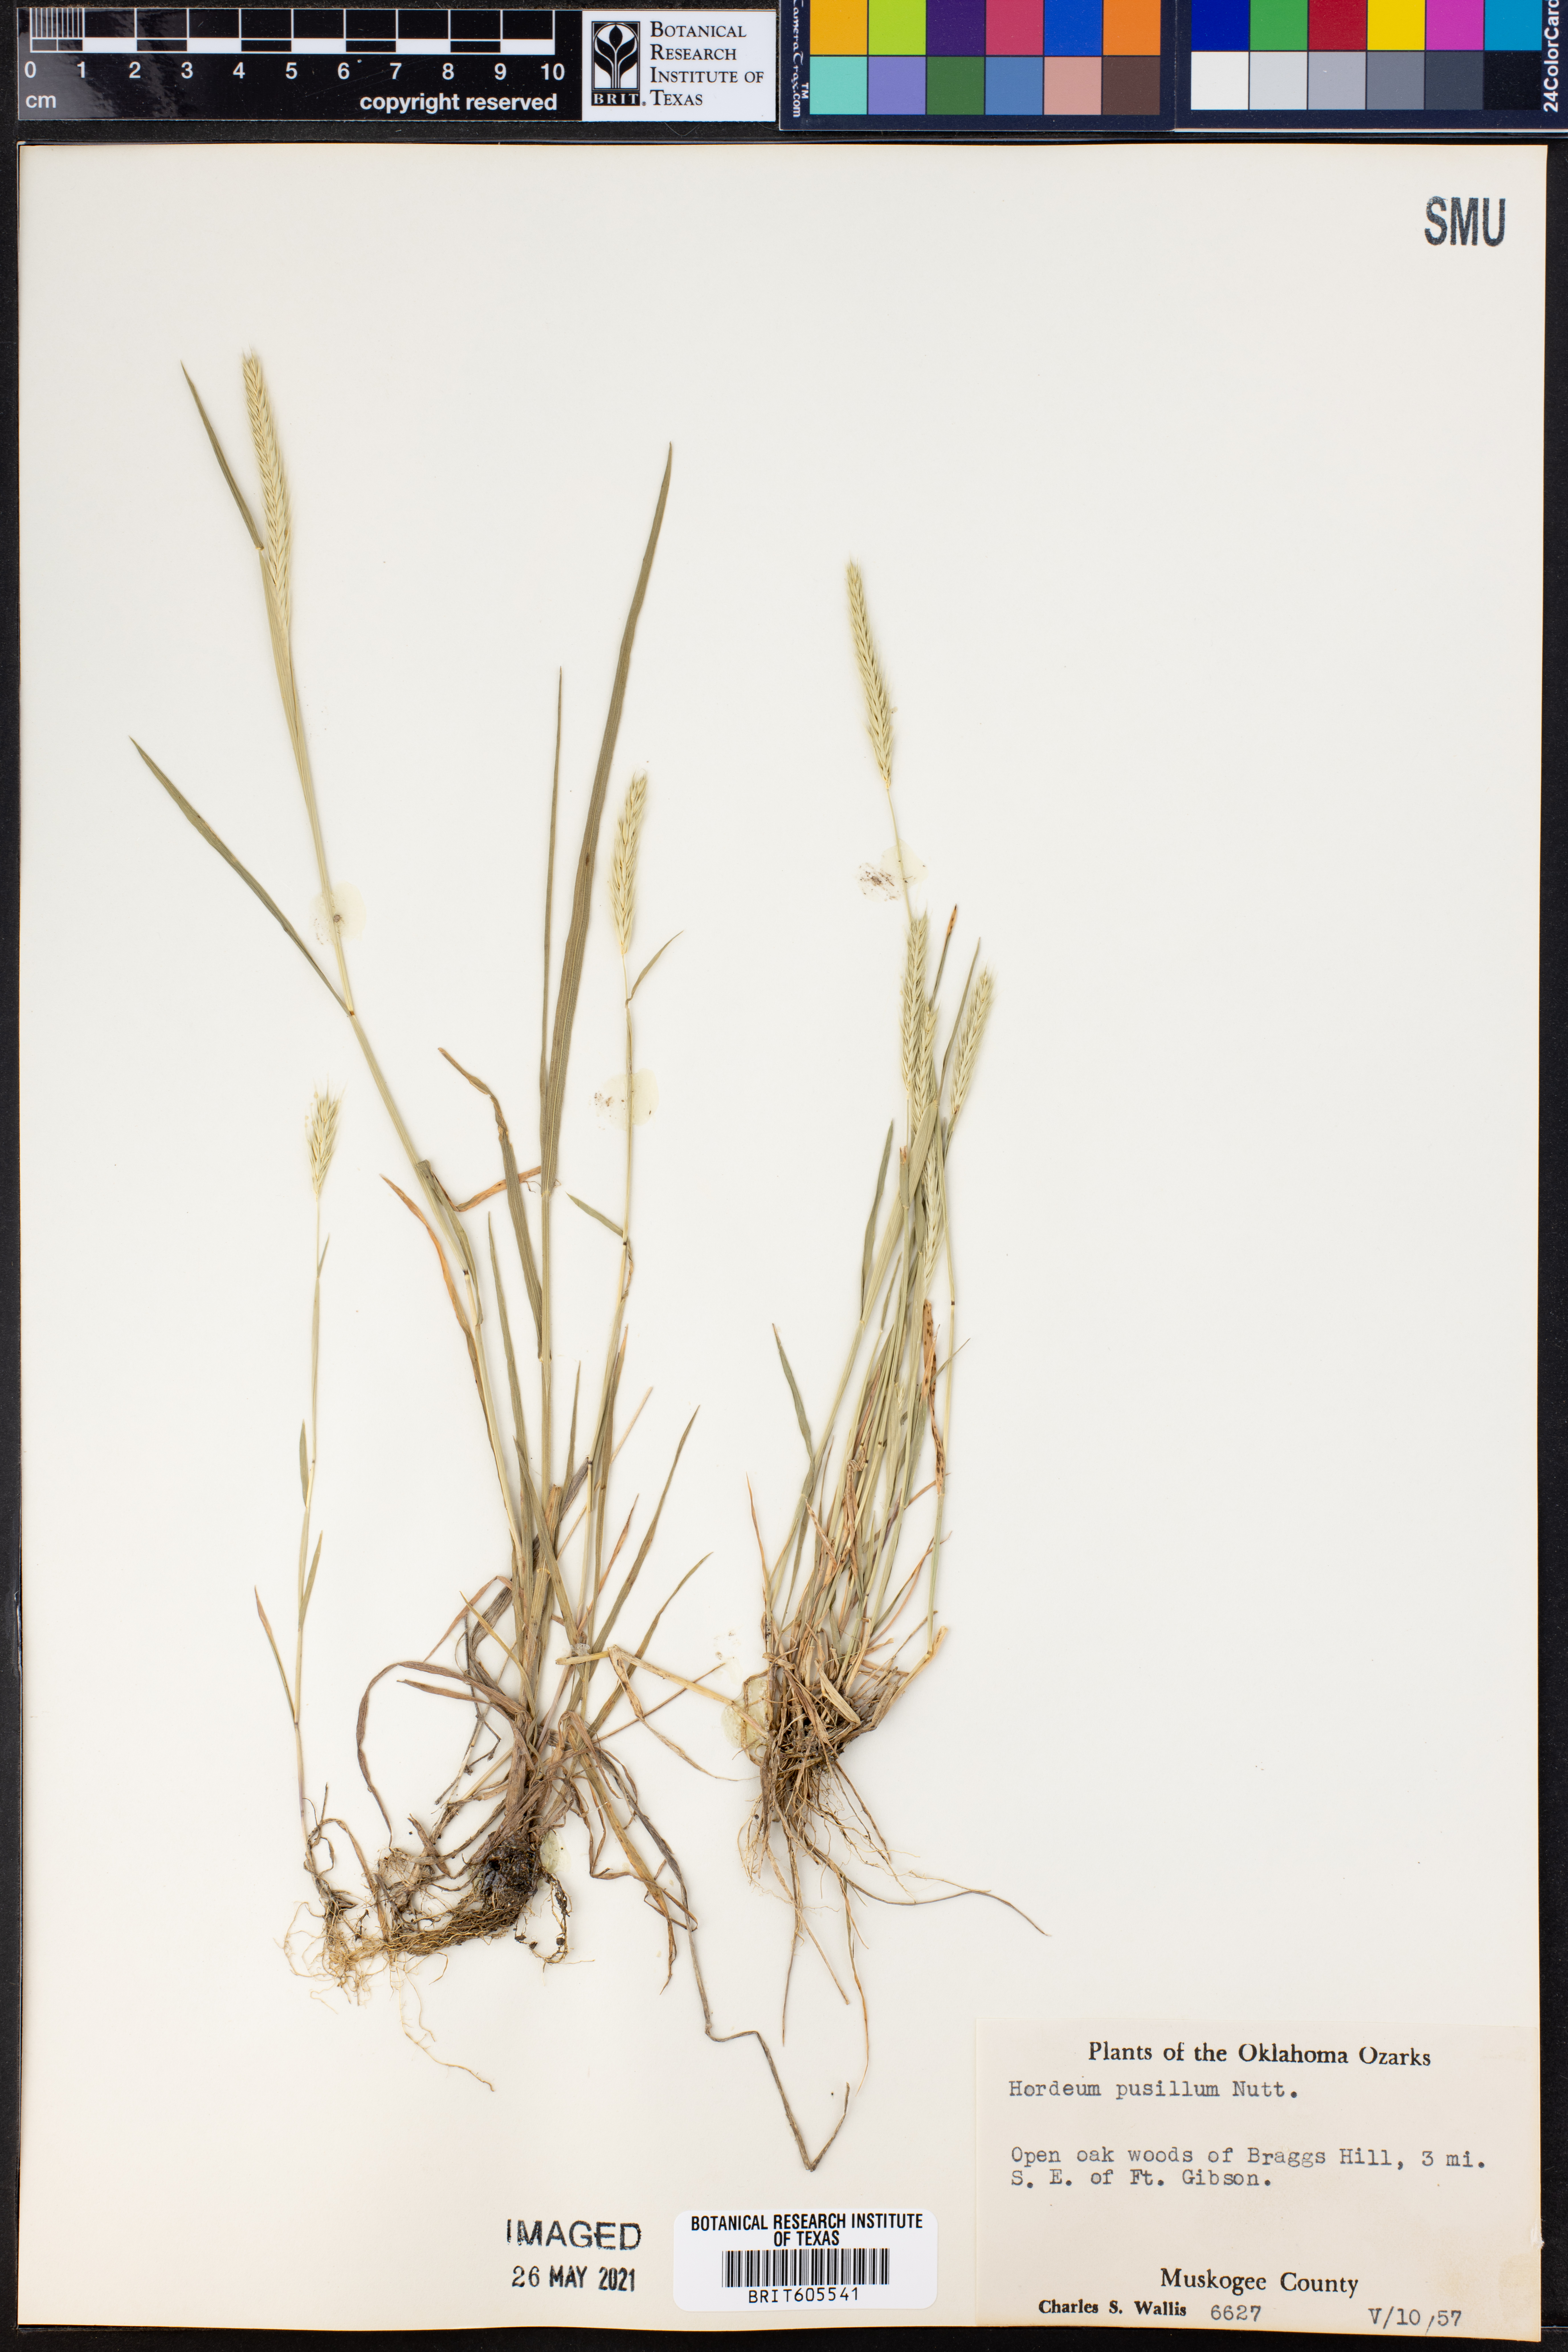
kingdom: Plantae
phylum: Tracheophyta
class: Liliopsida
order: Poales
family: Poaceae
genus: Hordeum
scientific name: Hordeum pusillum
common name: Little barley
